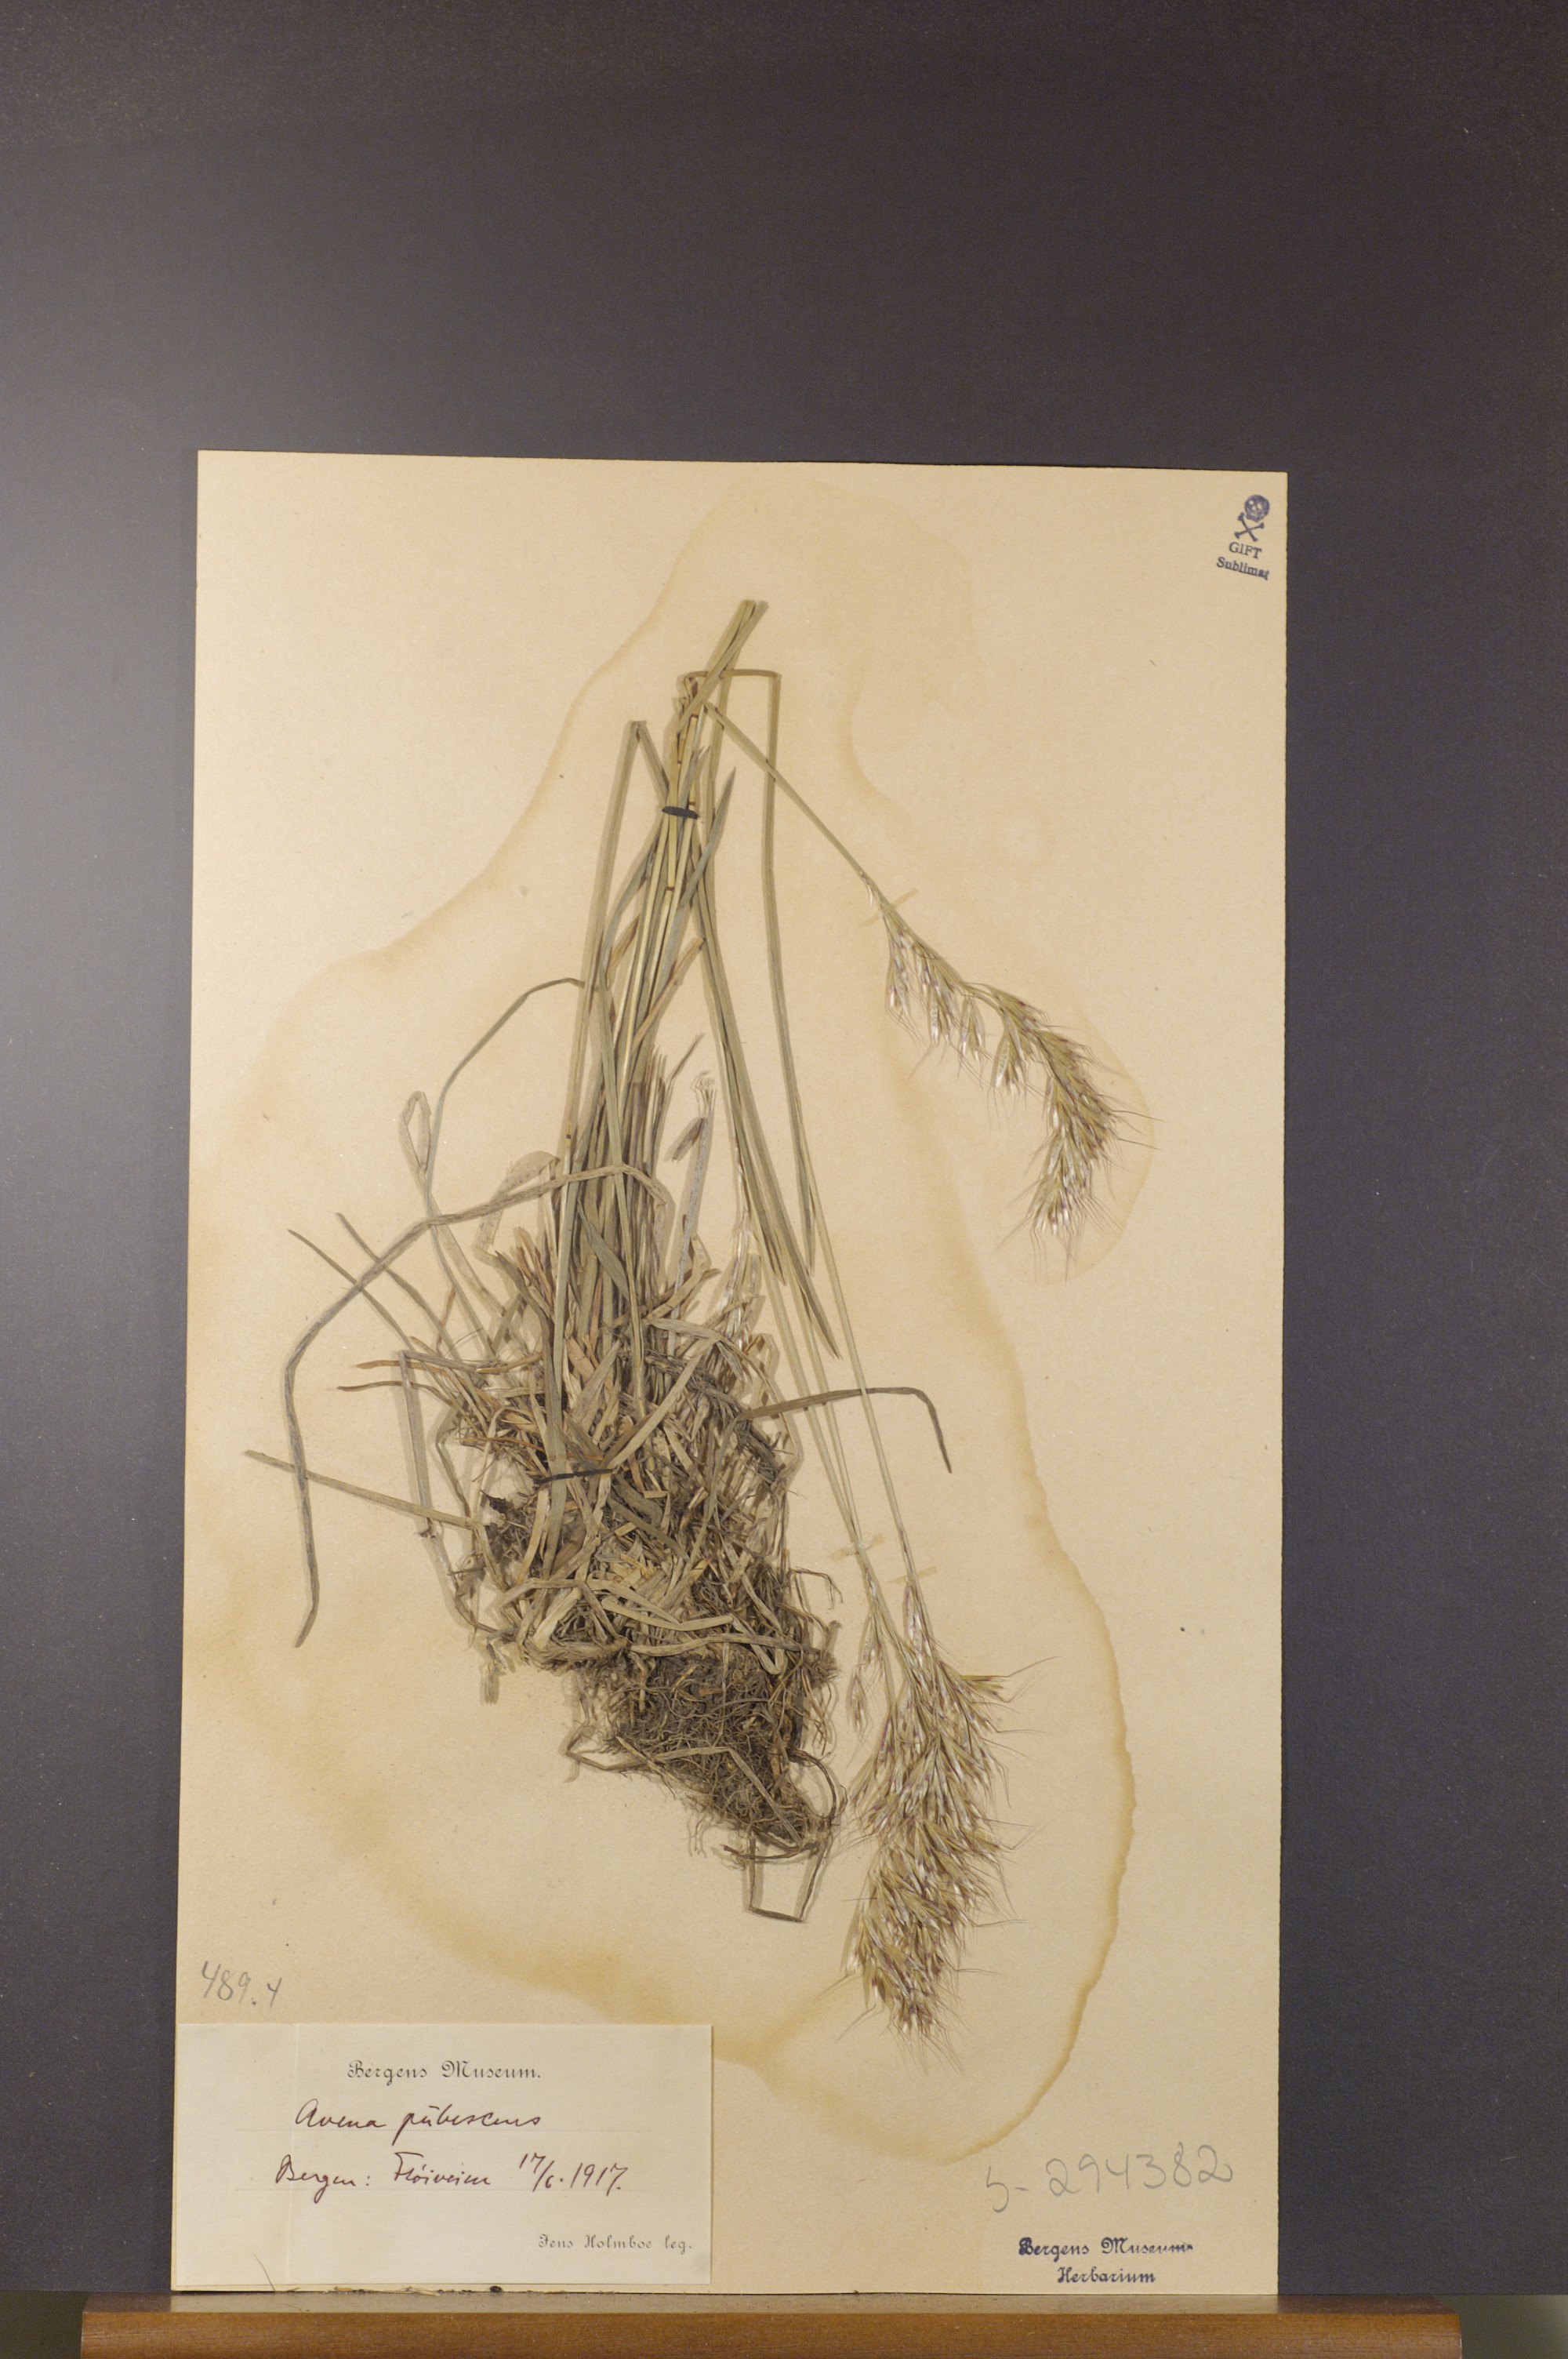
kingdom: Plantae
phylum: Tracheophyta
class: Liliopsida
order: Poales
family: Poaceae
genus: Avenula
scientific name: Avenula pubescens
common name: Downy alpine oatgrass
